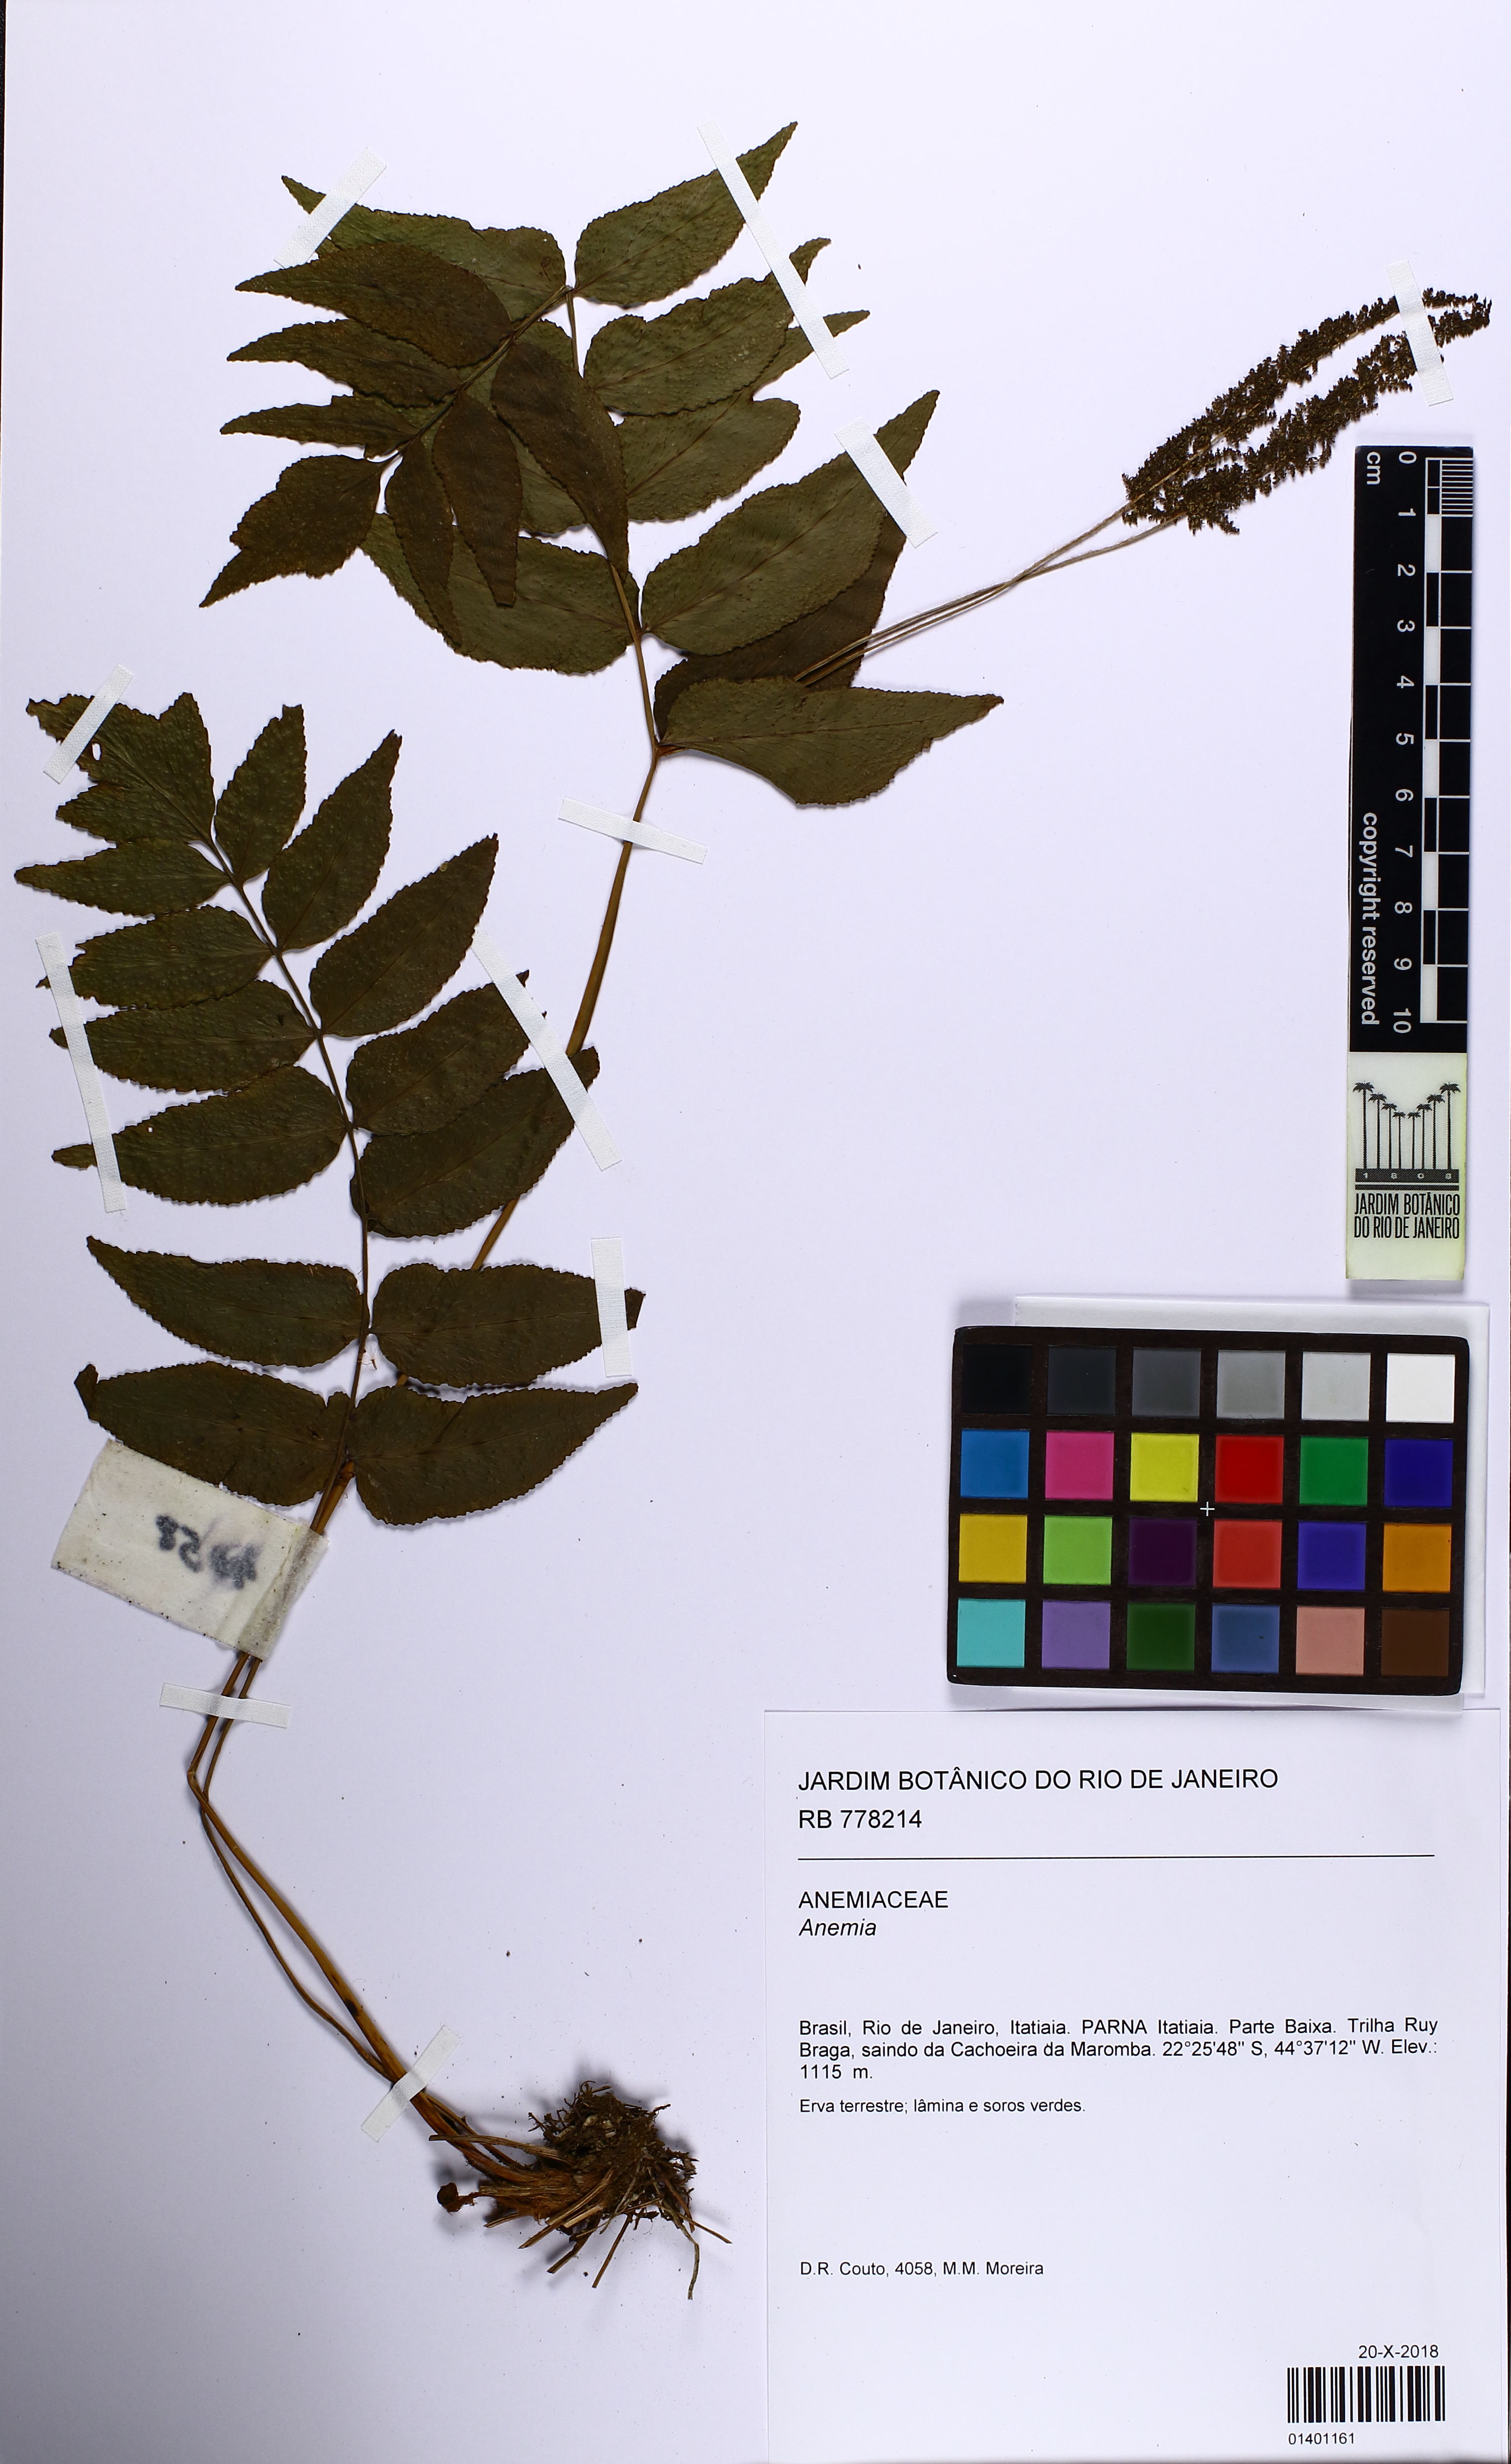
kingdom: Plantae
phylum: Tracheophyta
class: Polypodiopsida
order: Schizaeales
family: Anemiaceae
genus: Anemia
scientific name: Anemia phyllitidis
